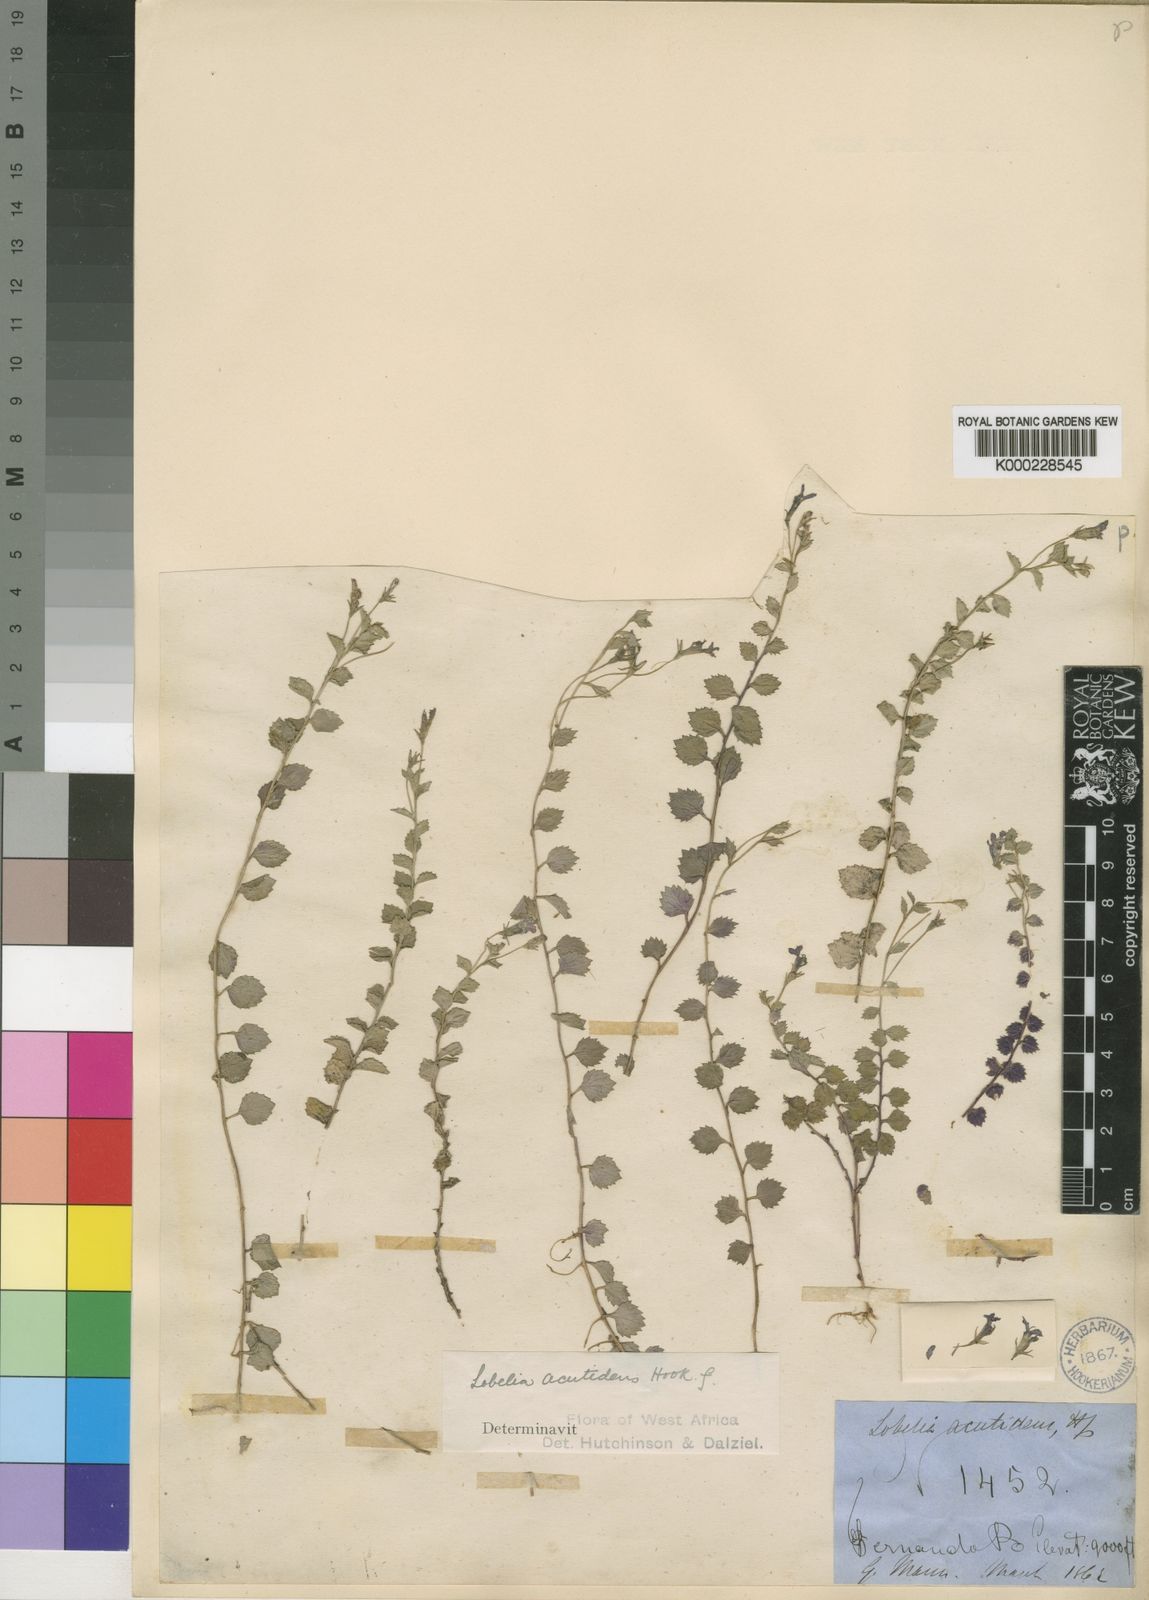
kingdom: Plantae
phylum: Tracheophyta
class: Magnoliopsida
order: Asterales
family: Campanulaceae
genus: Lobelia
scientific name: Lobelia acutidens
